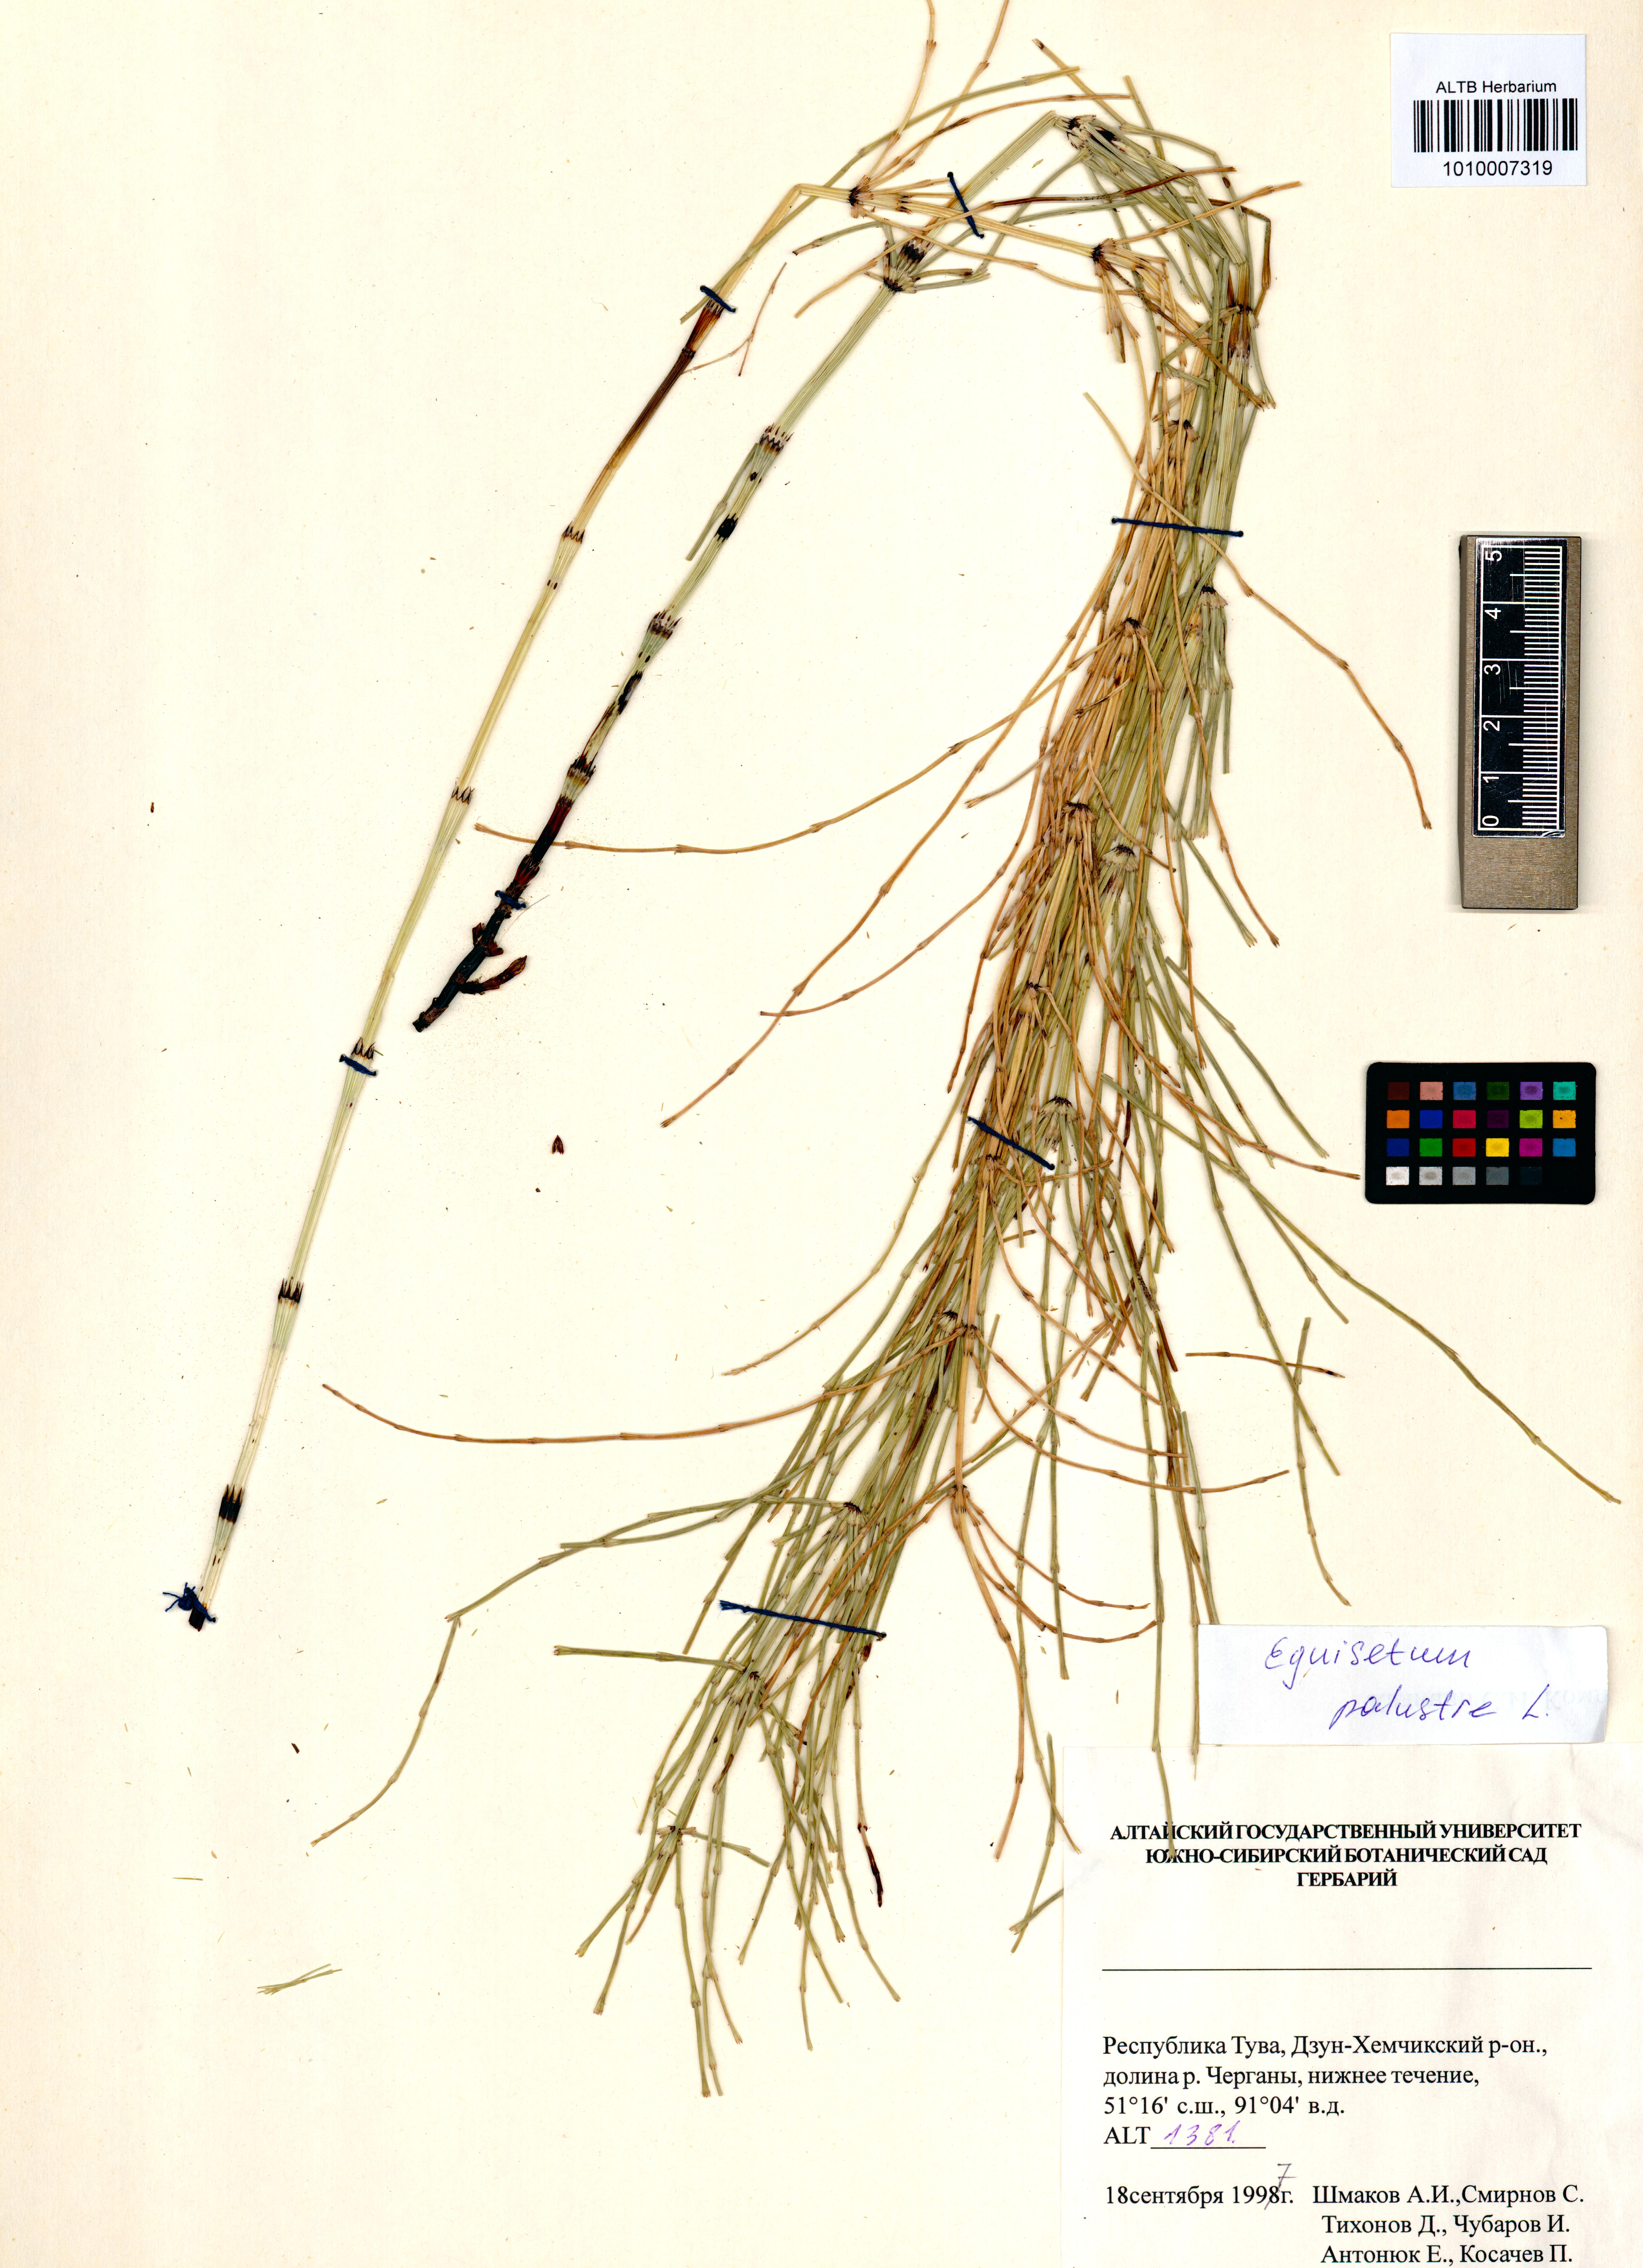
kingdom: Plantae
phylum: Tracheophyta
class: Polypodiopsida
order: Equisetales
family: Equisetaceae
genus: Equisetum
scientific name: Equisetum palustre
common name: Marsh horsetail
